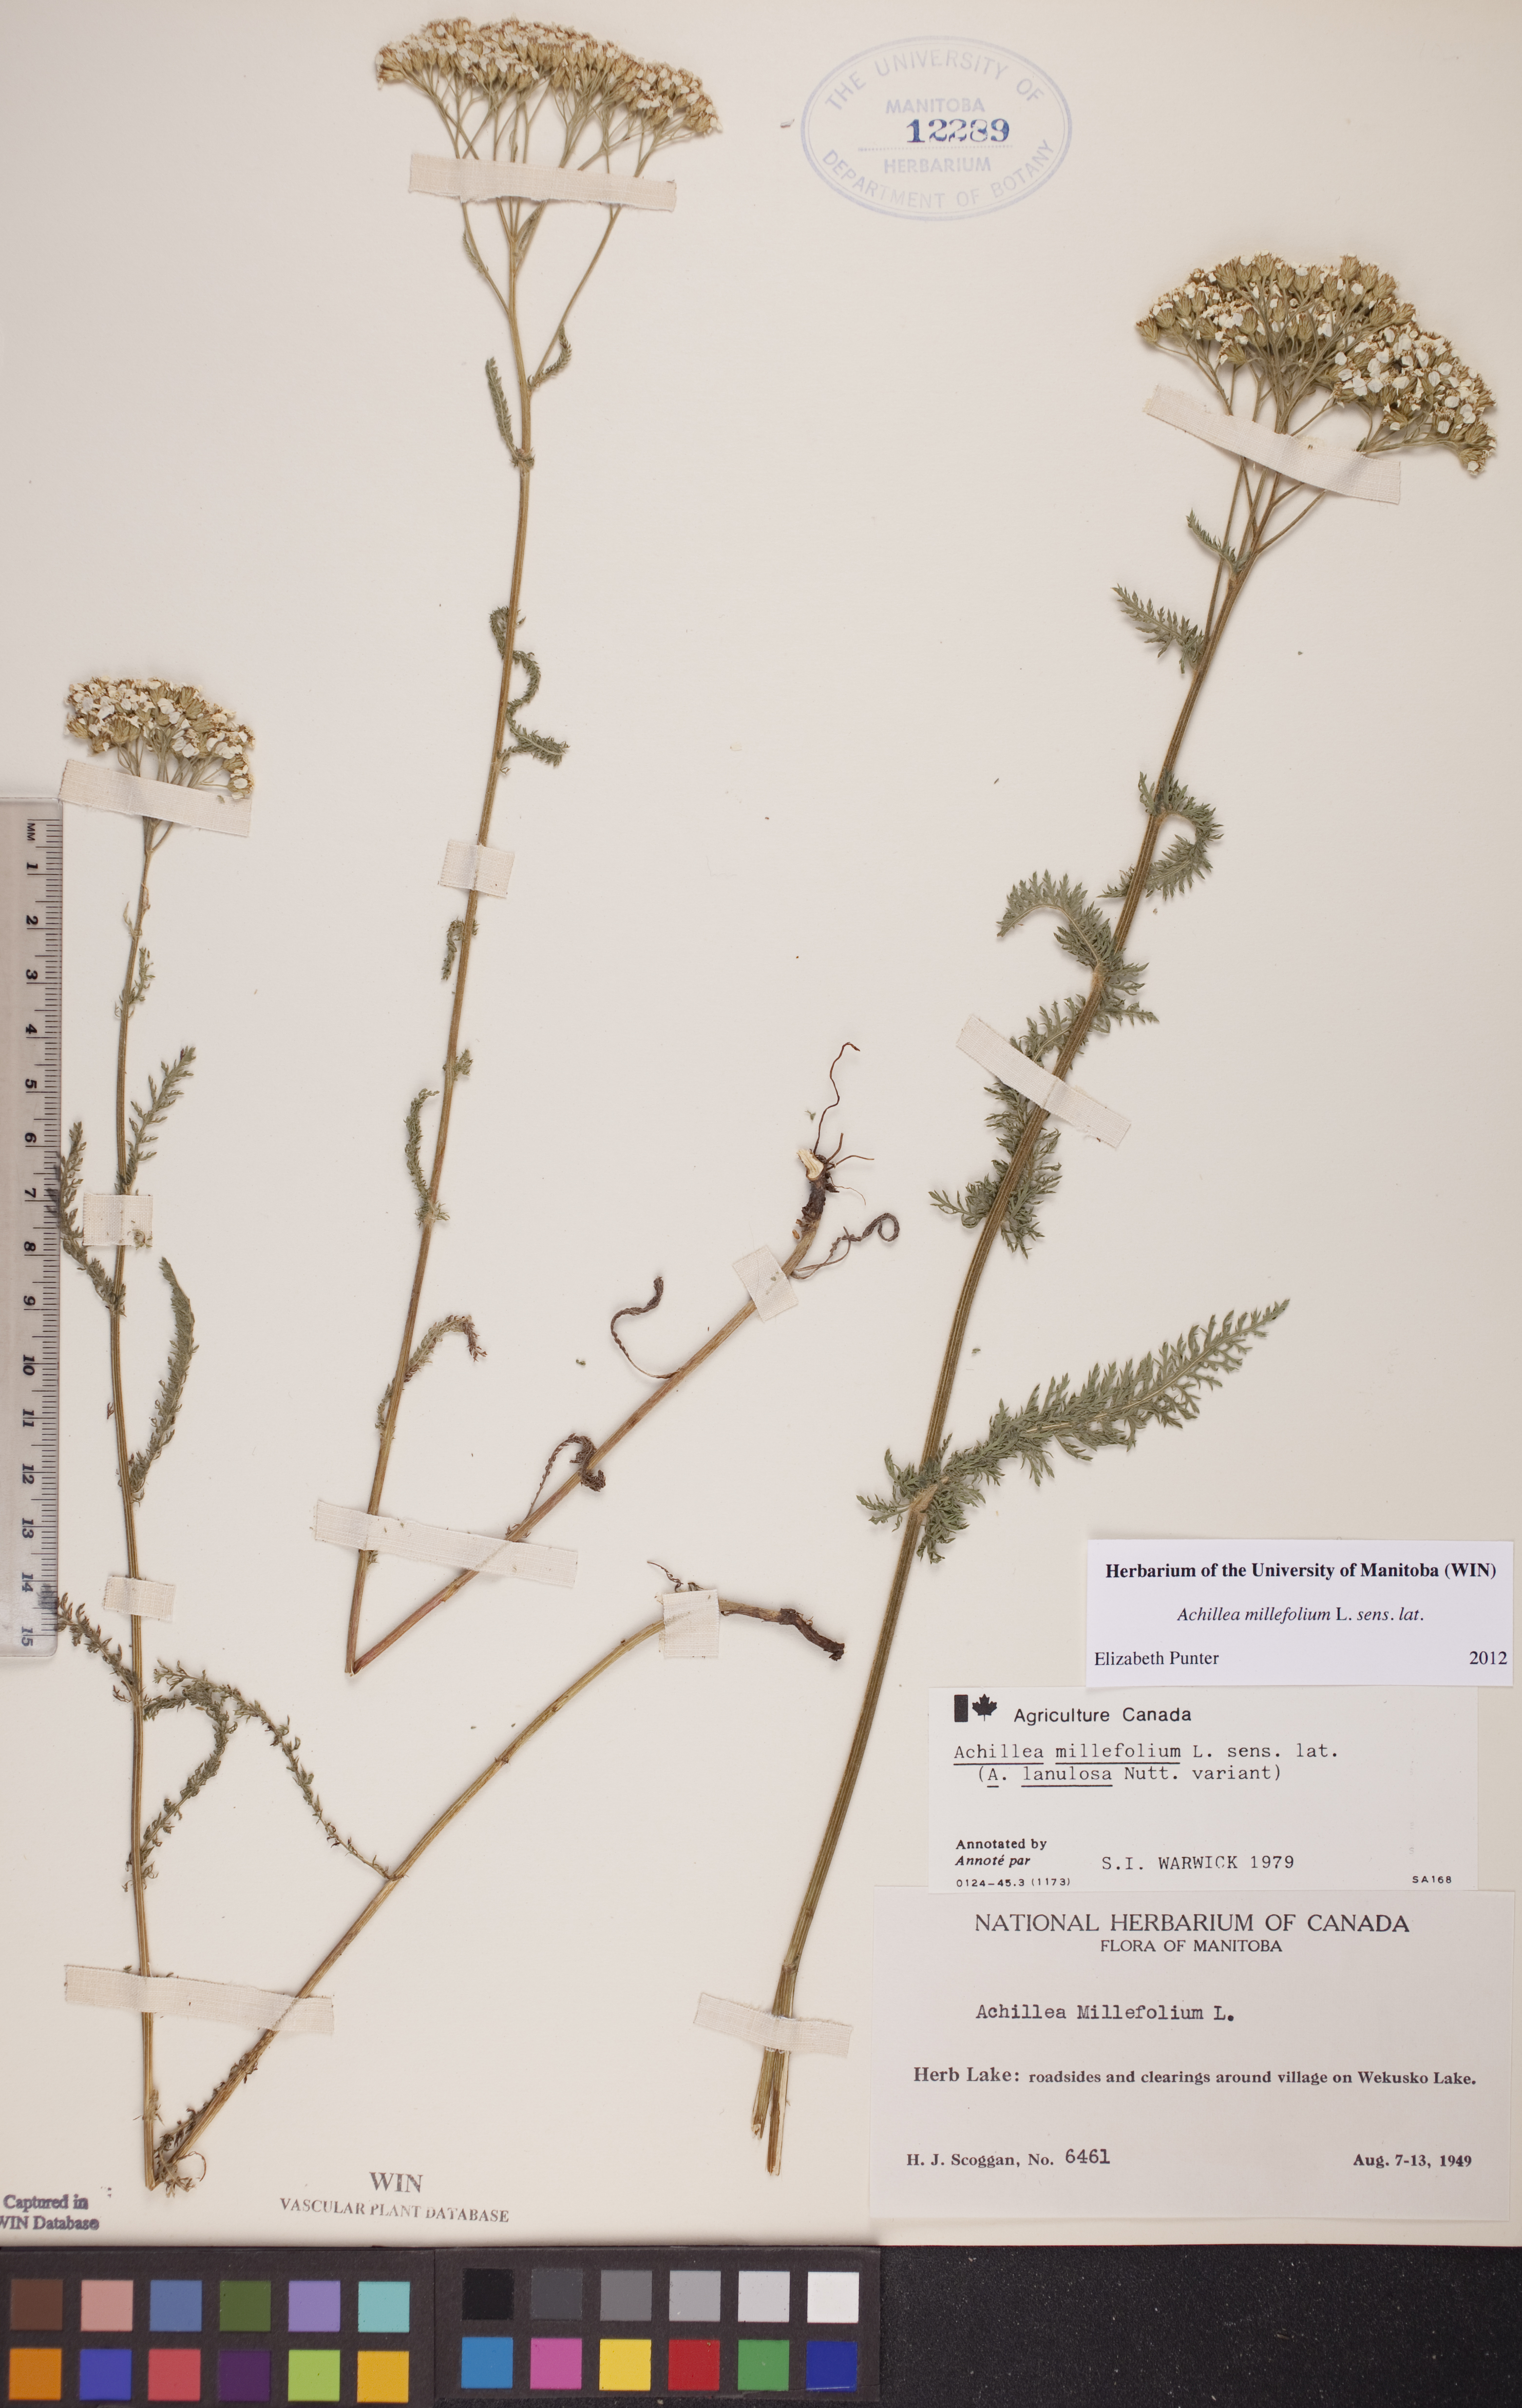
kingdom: Plantae
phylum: Tracheophyta
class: Magnoliopsida
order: Asterales
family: Asteraceae
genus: Achillea
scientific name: Achillea millefolium
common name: Yarrow
